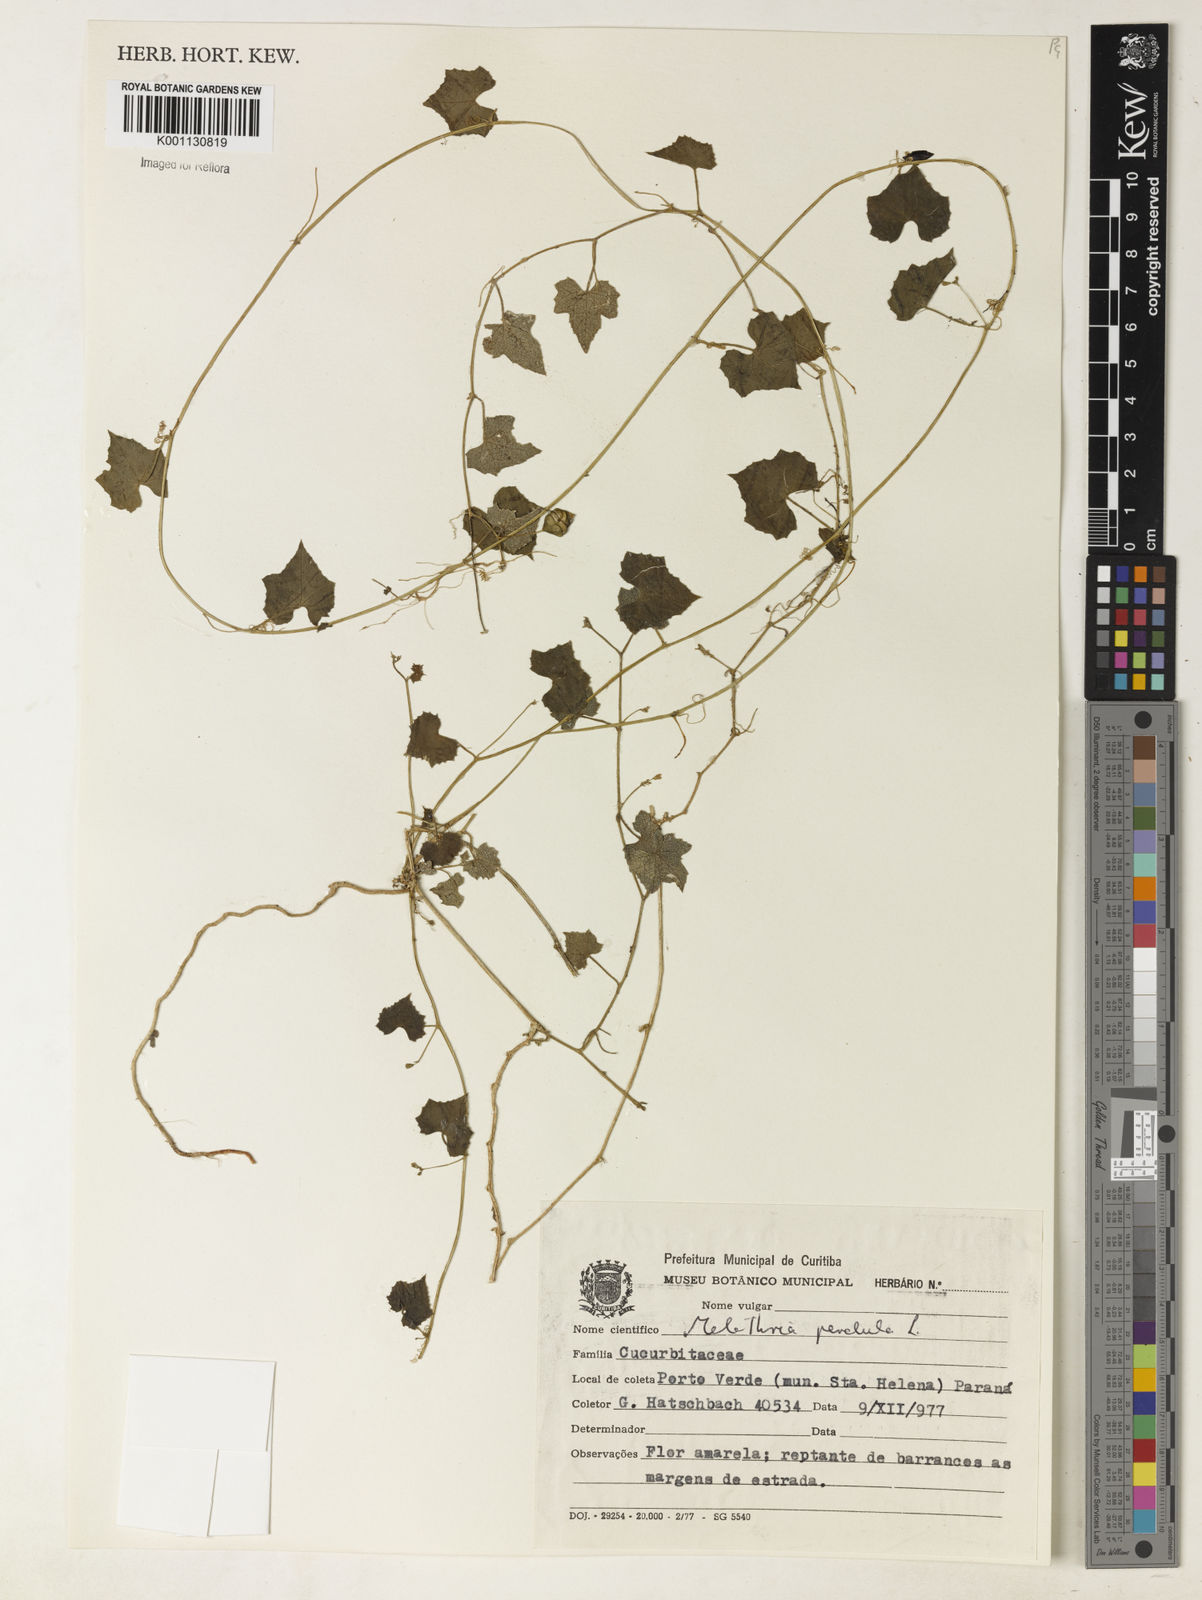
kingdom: Plantae
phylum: Tracheophyta
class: Magnoliopsida
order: Cucurbitales
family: Cucurbitaceae
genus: Melothria
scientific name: Melothria pendula
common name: Creeping-cucumber
